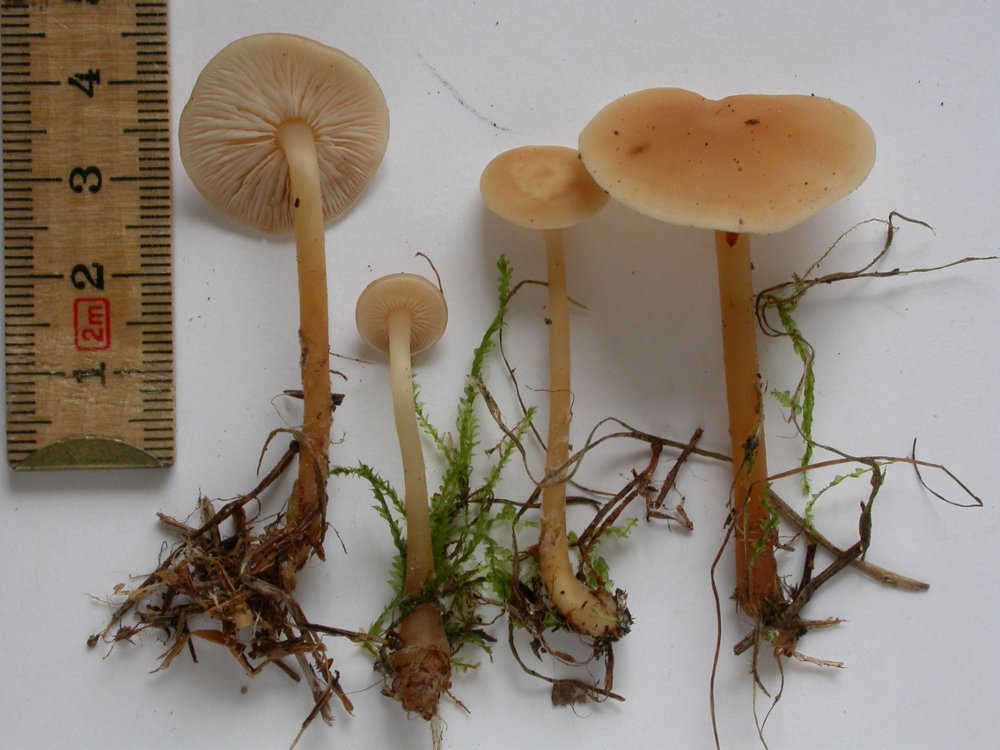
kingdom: Fungi
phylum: Basidiomycota
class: Agaricomycetes
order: Agaricales
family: Omphalotaceae
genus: Gymnopus
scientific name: Gymnopus dryophilus
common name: løv-fladhat
